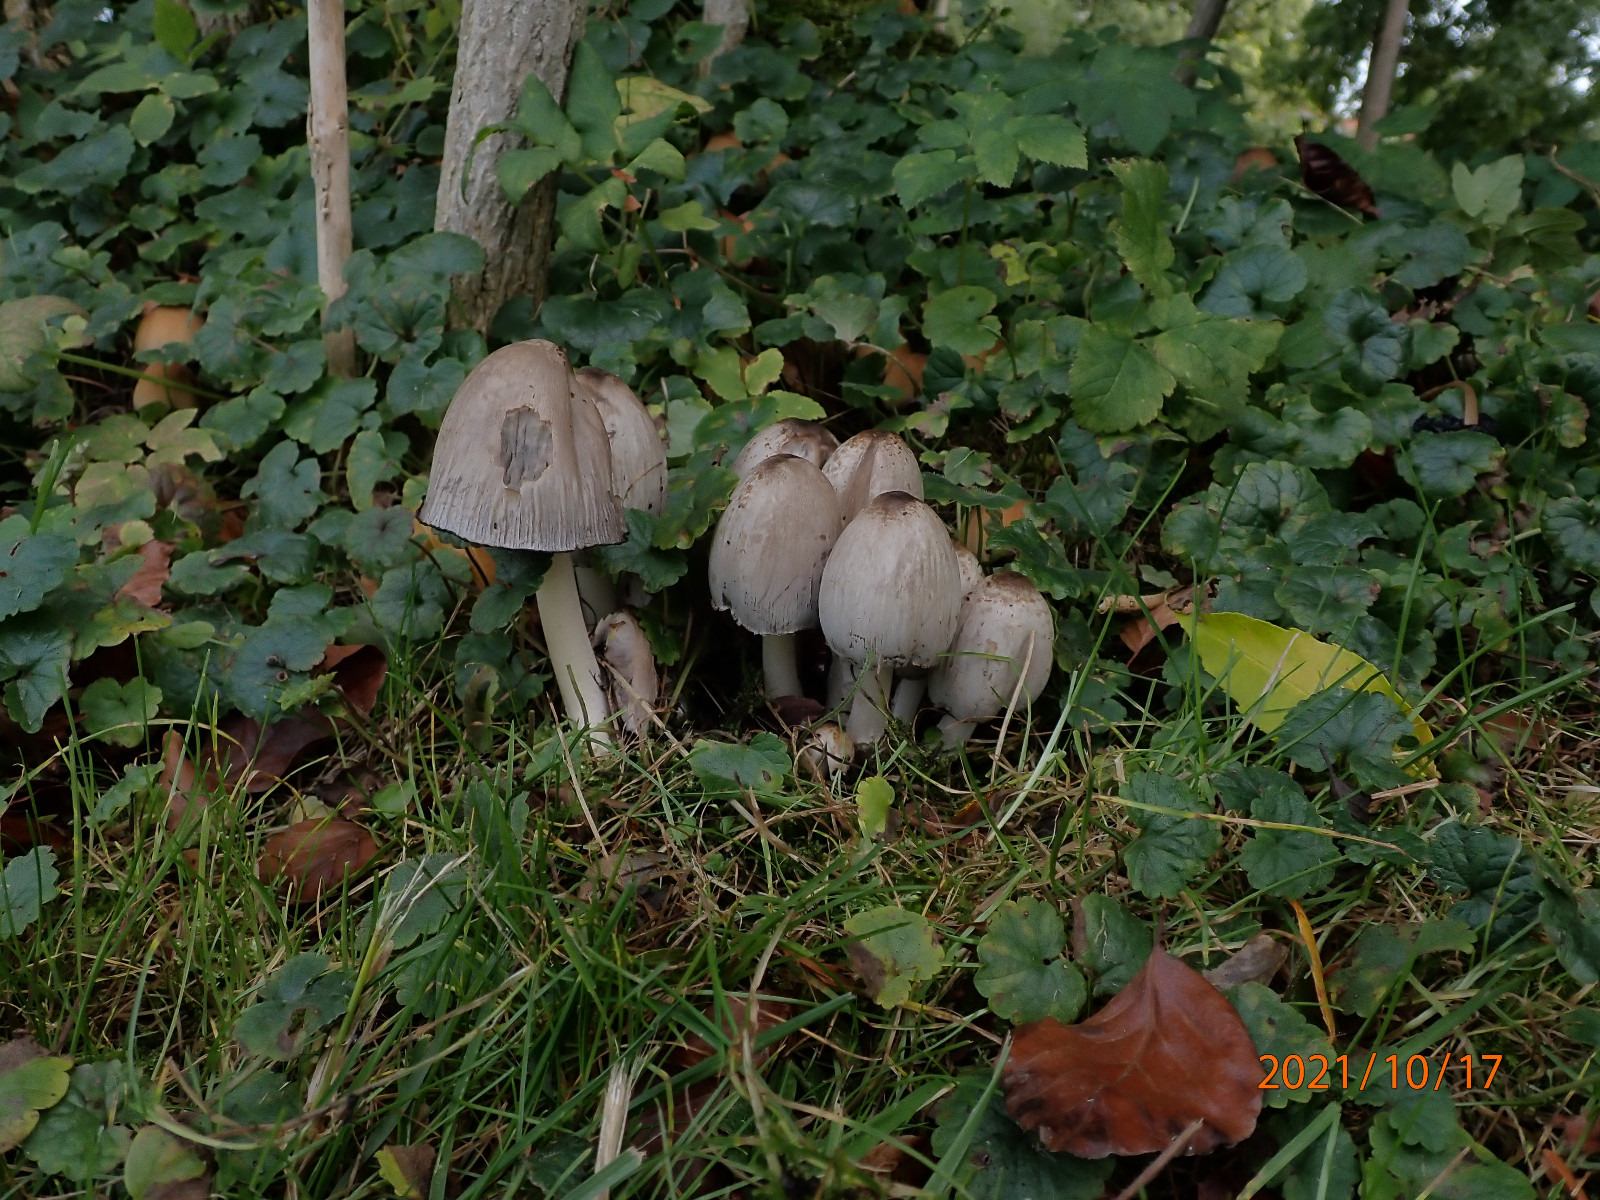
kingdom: Fungi
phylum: Basidiomycota
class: Agaricomycetes
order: Agaricales
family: Psathyrellaceae
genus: Coprinopsis
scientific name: Coprinopsis atramentaria
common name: almindelig blækhat
